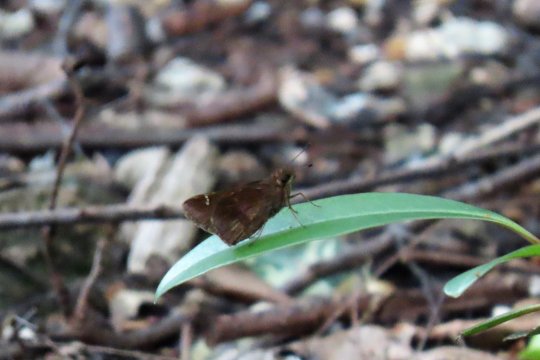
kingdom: Animalia
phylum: Arthropoda
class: Insecta
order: Lepidoptera
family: Hesperiidae
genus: Lerema
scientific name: Lerema accius
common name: Clouded Skipper
